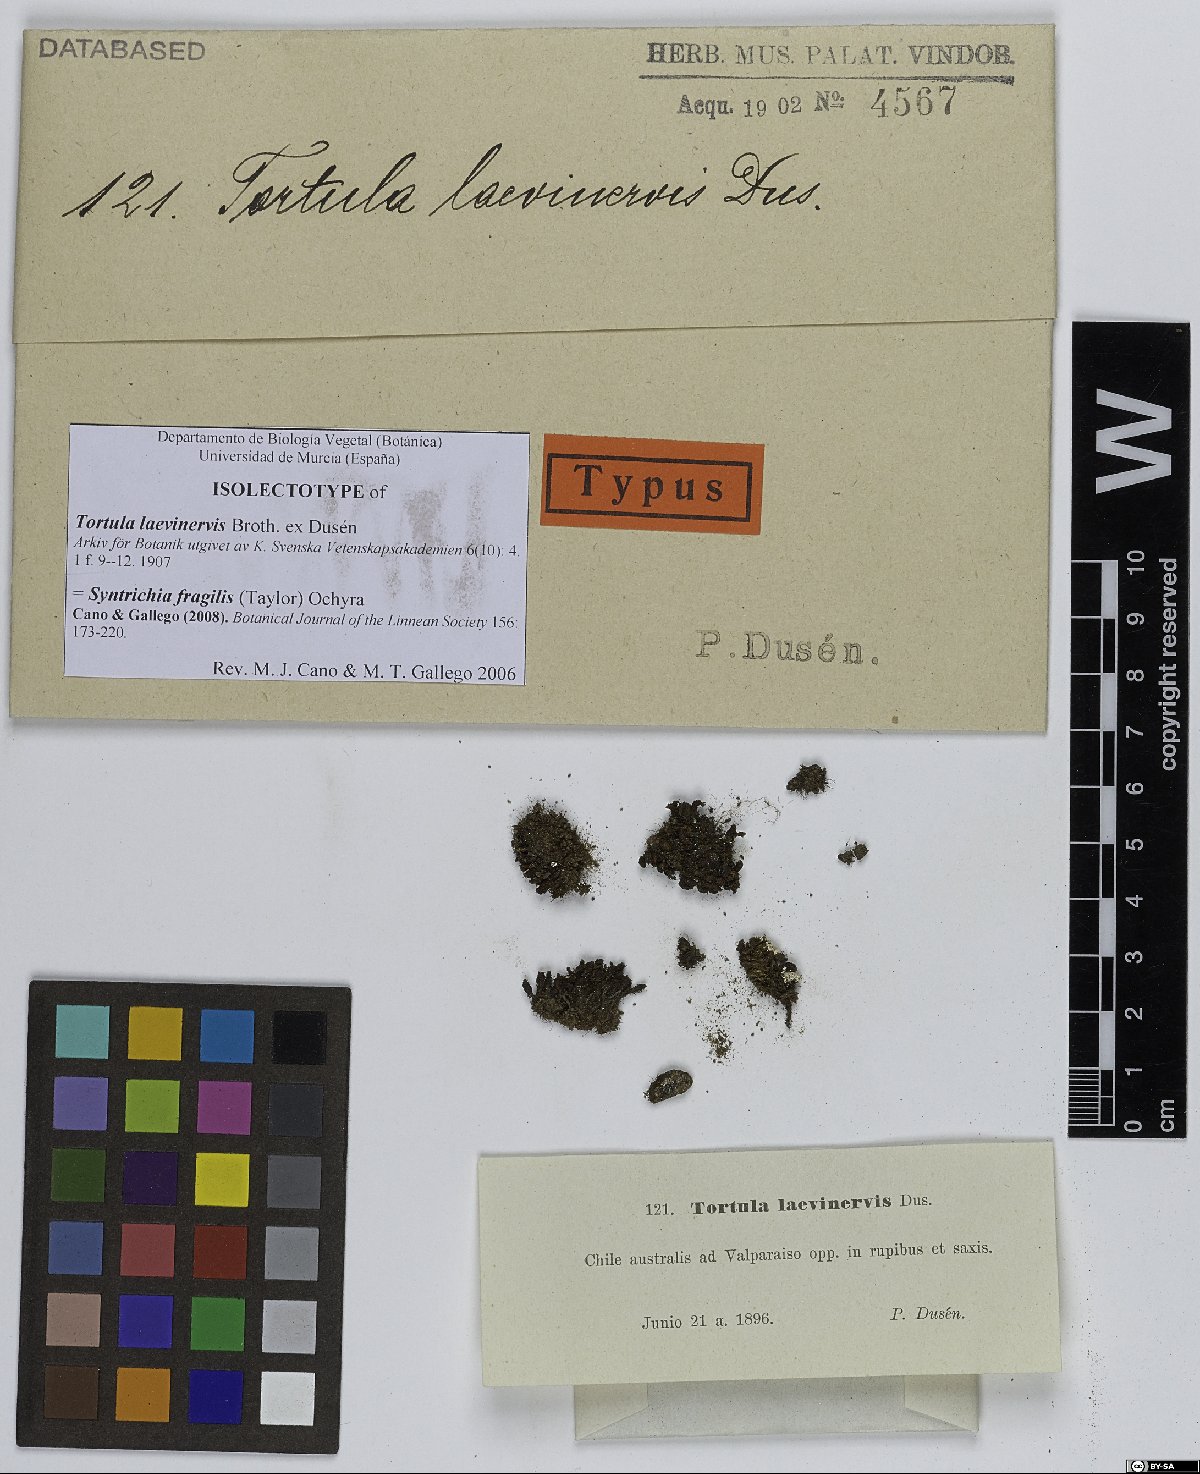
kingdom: Plantae
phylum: Bryophyta
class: Bryopsida
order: Pottiales
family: Pottiaceae
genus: Syntrichia
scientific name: Syntrichia fragilis
